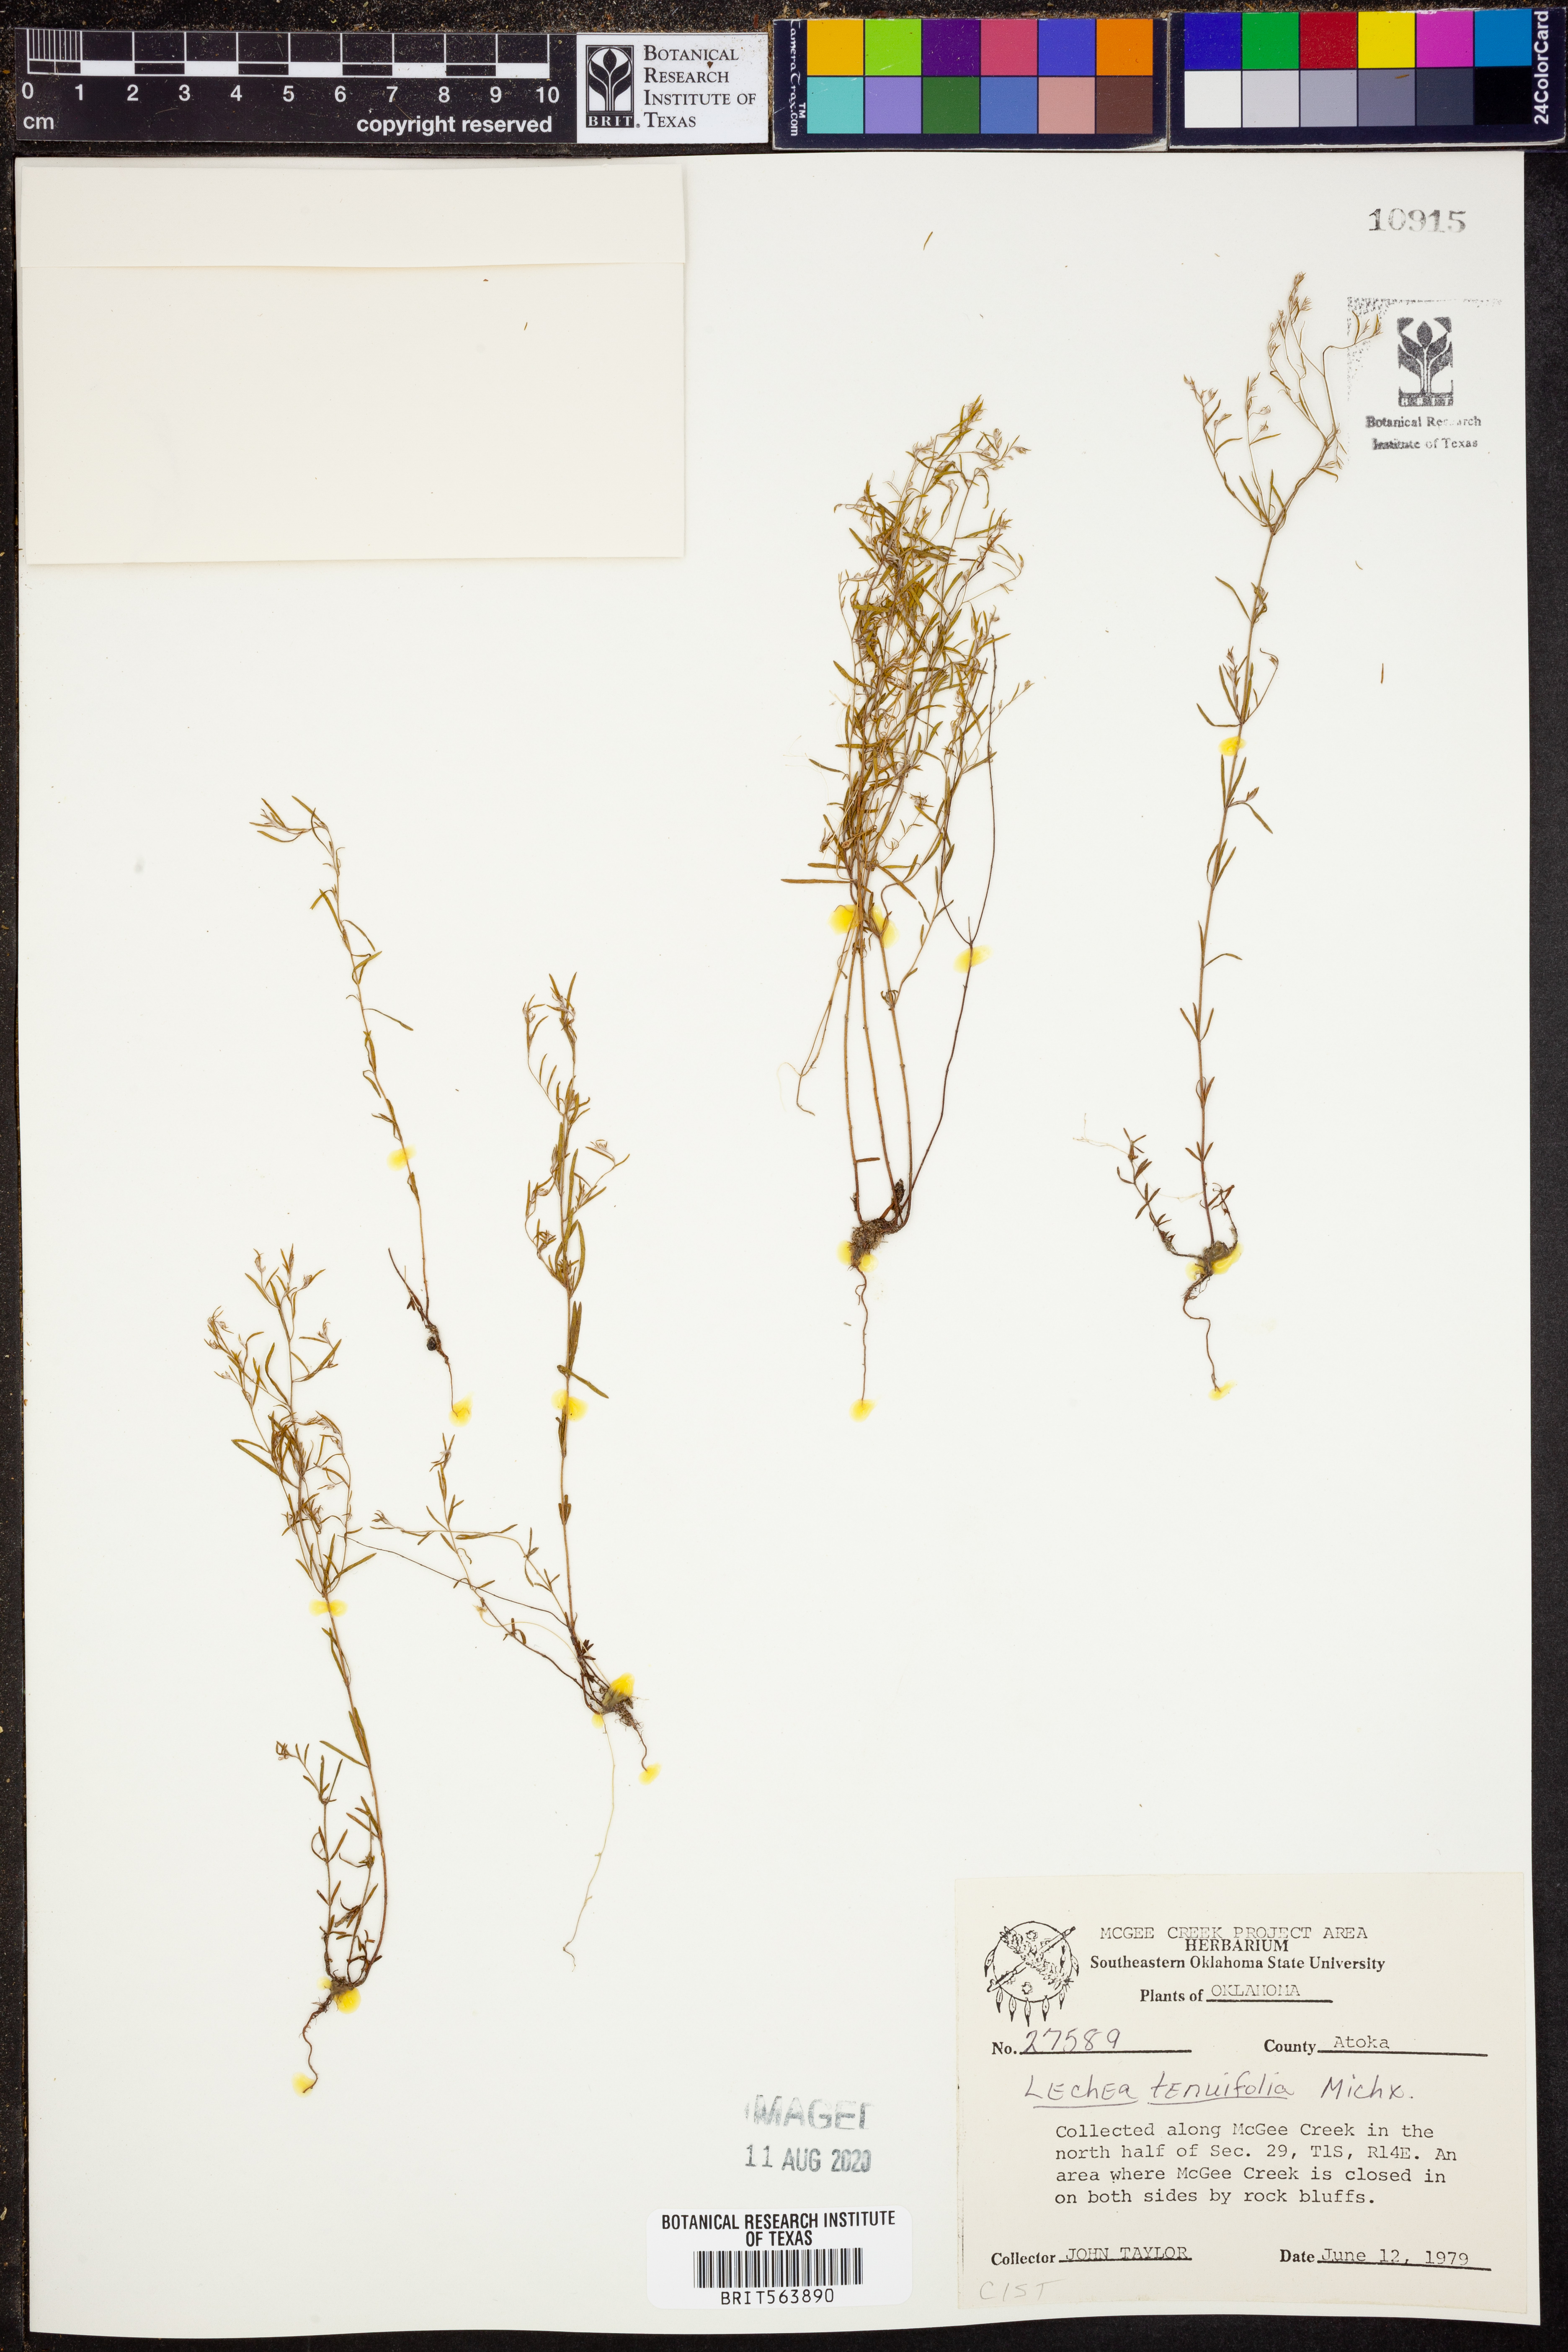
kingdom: Plantae
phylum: Tracheophyta
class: Magnoliopsida
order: Malvales
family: Cistaceae
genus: Lechea
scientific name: Lechea tenuifolia
